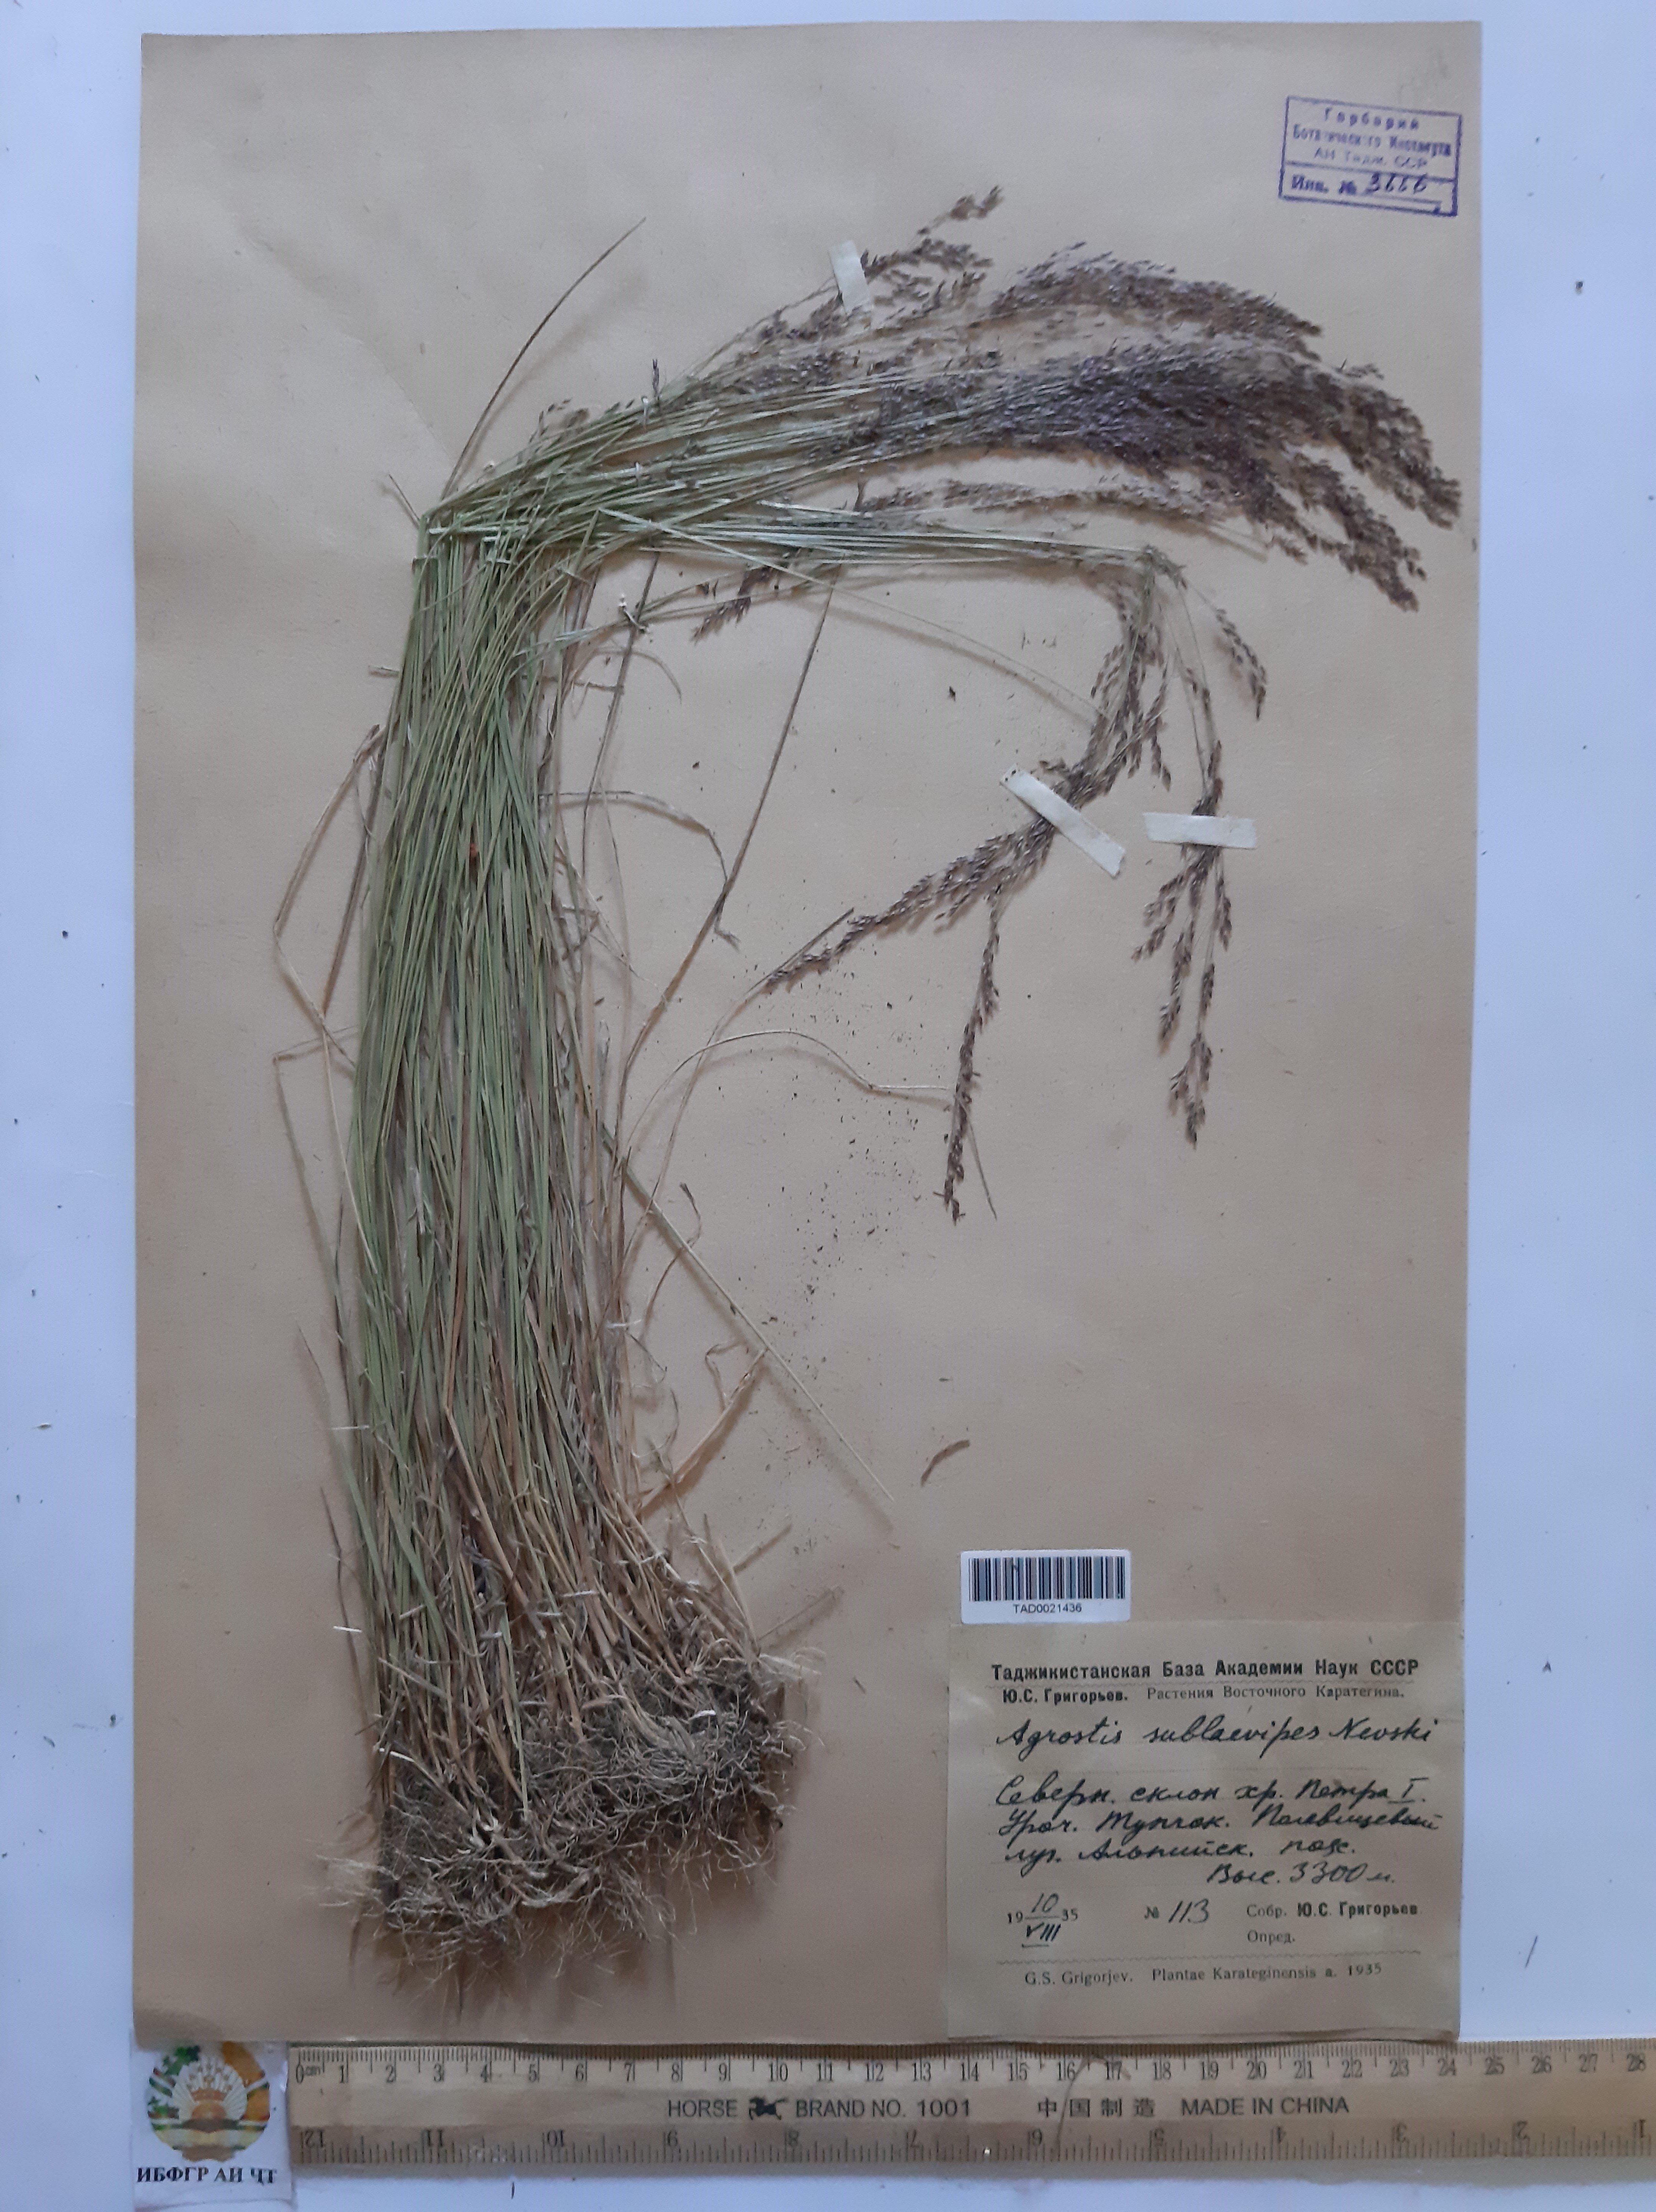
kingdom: Plantae
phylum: Tracheophyta
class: Liliopsida
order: Poales
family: Poaceae
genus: Agrostis
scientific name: Agrostis vinealis
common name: Brown bent
